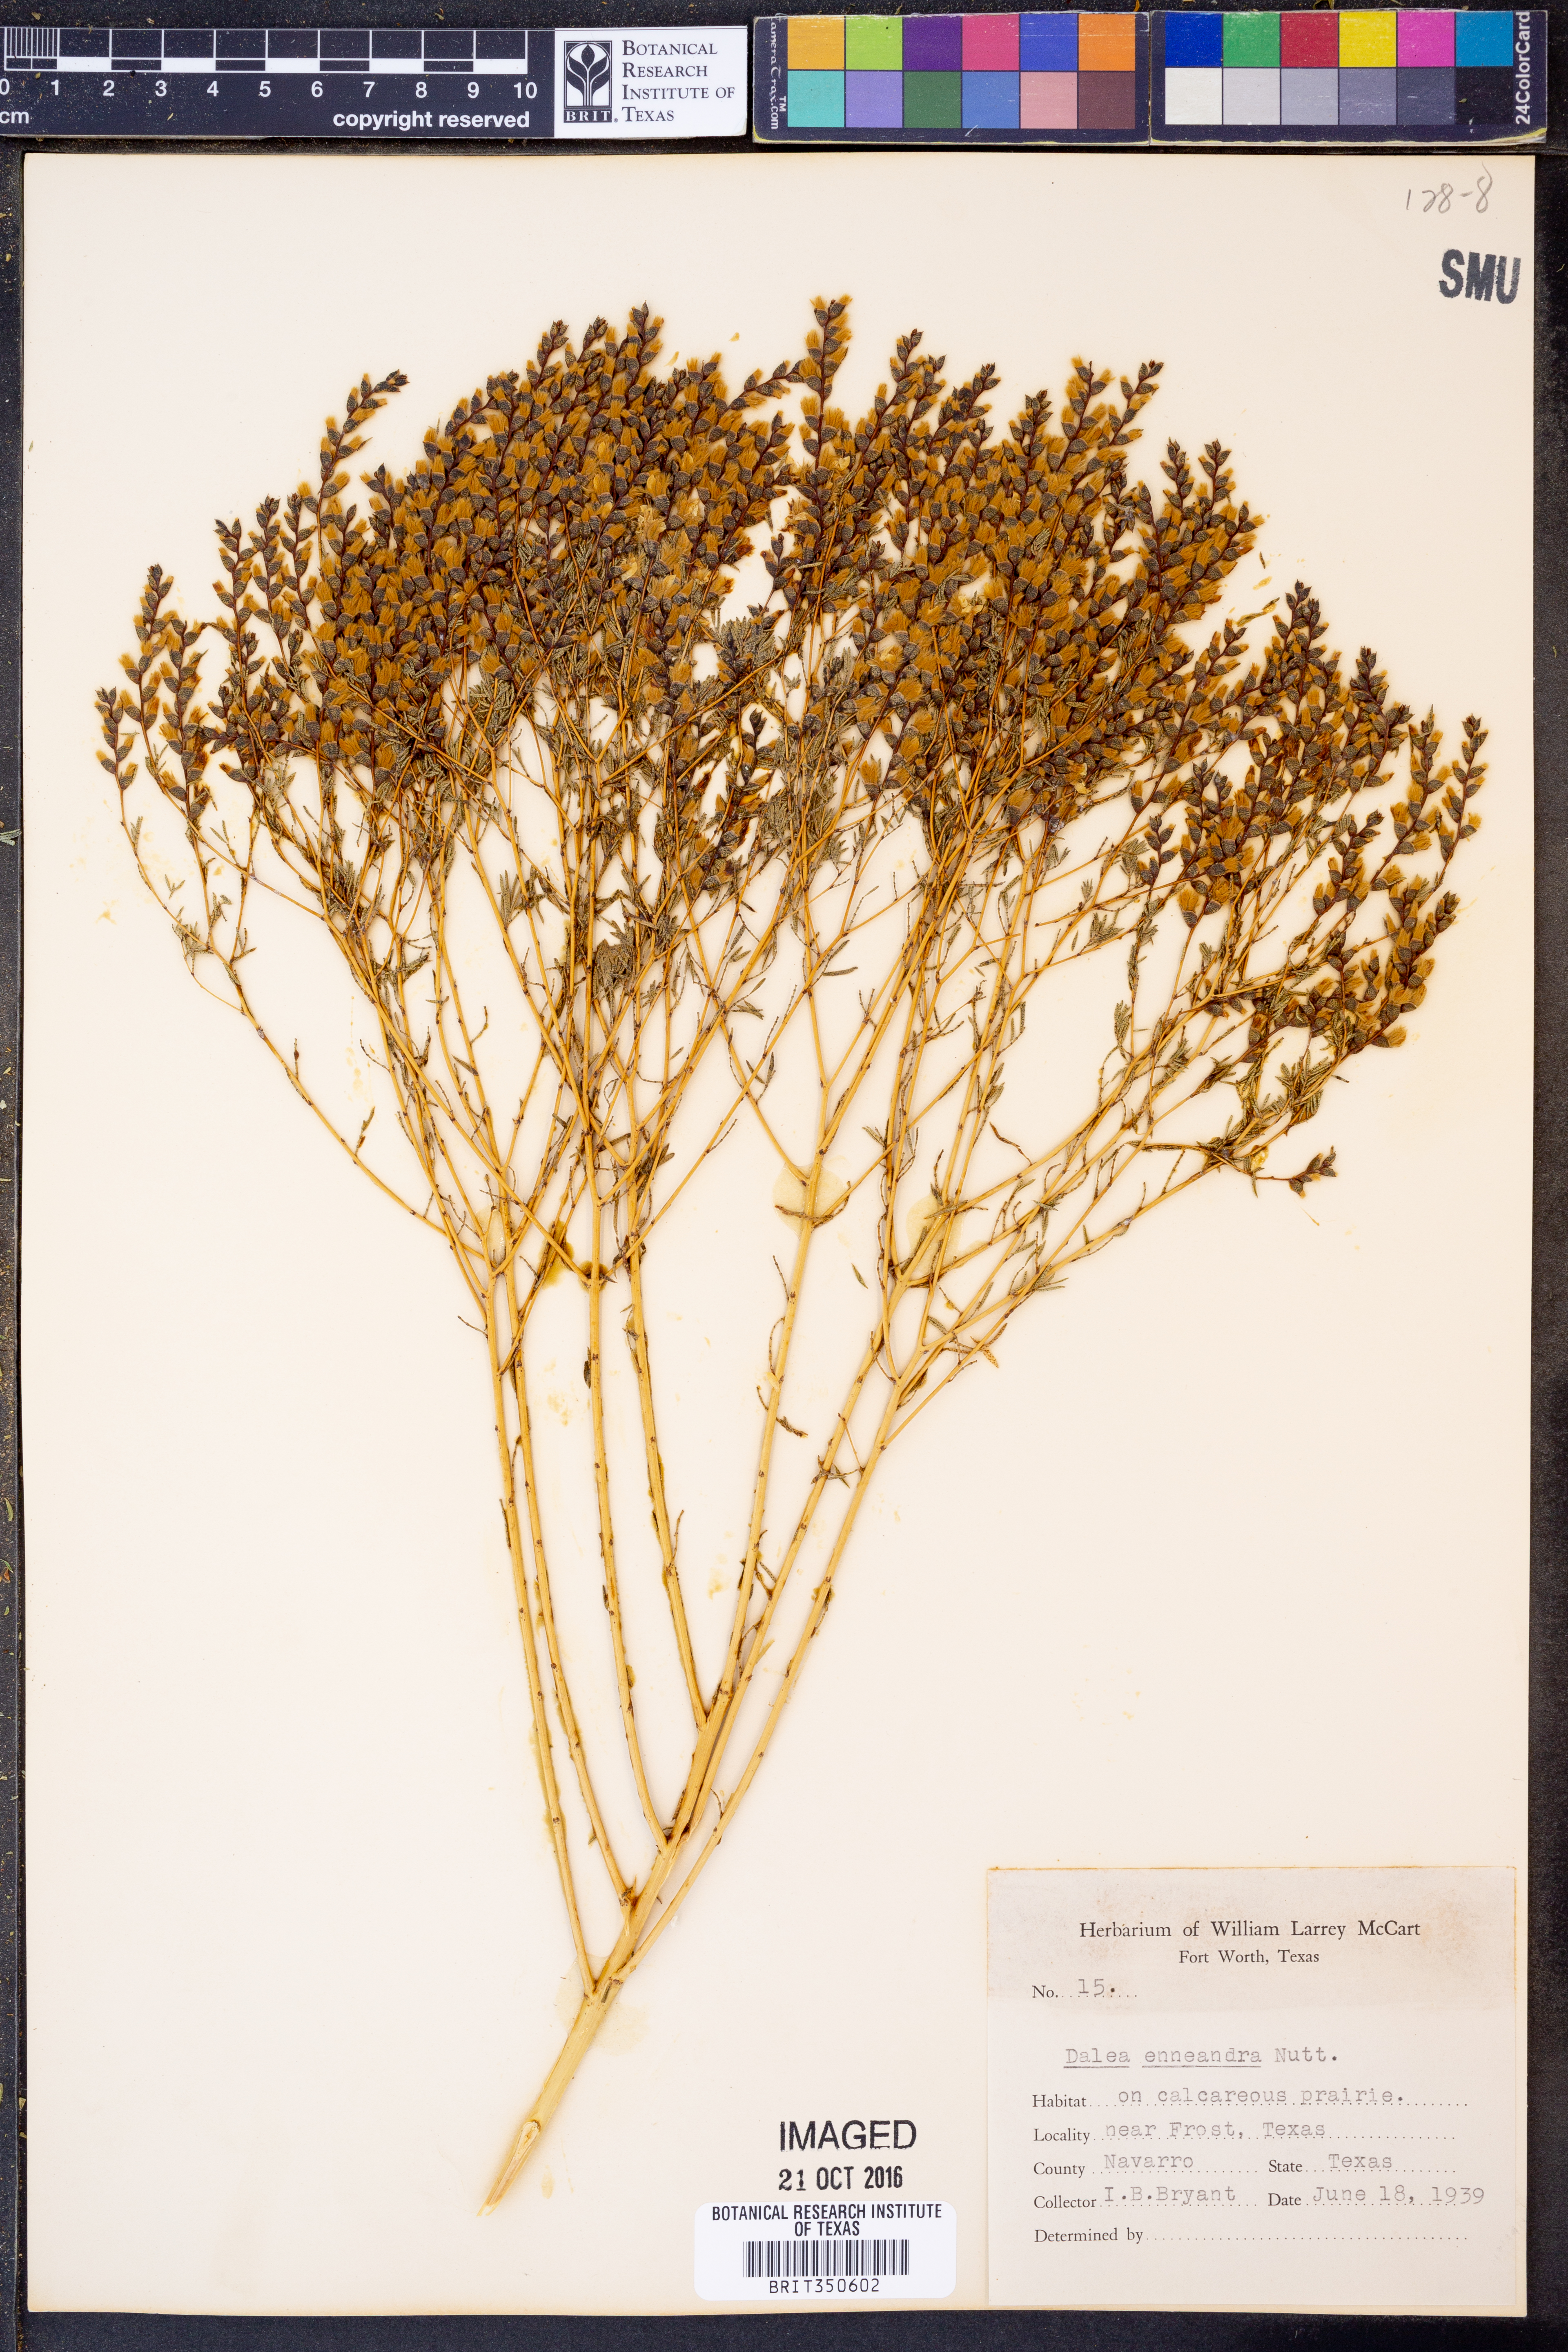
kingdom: Plantae
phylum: Tracheophyta
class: Magnoliopsida
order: Fabales
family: Fabaceae
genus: Dalea
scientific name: Dalea enneandra
